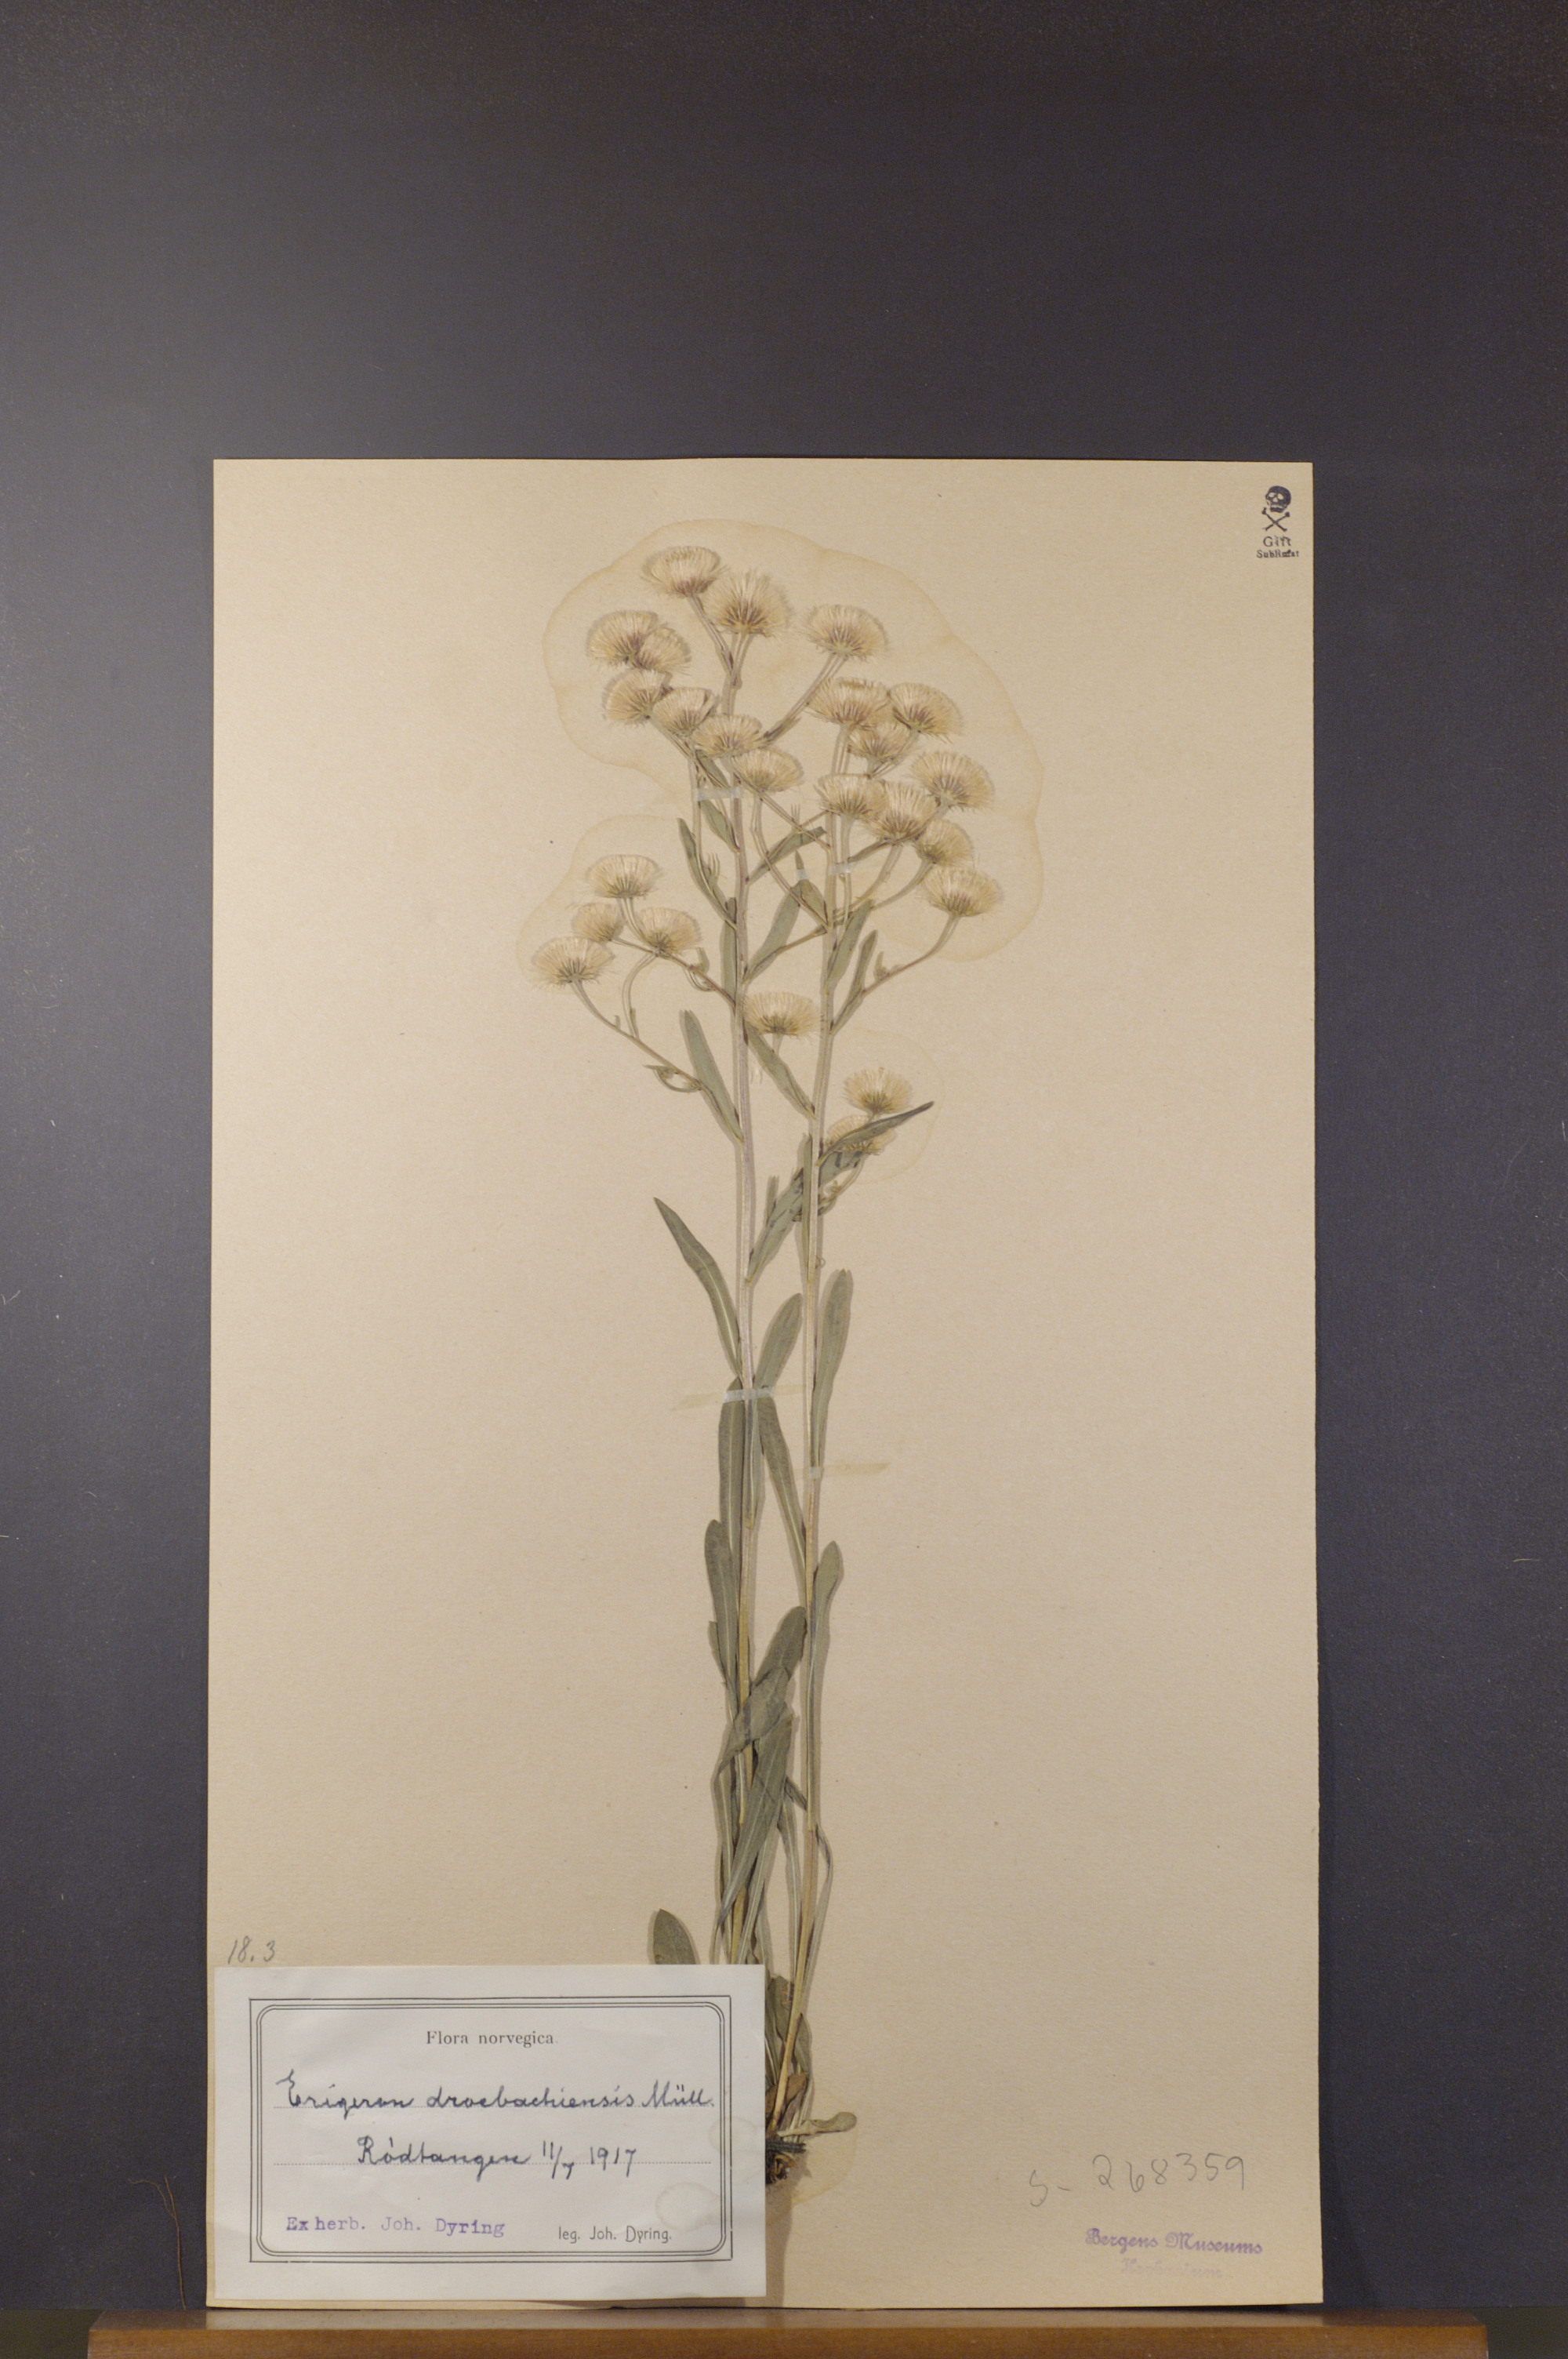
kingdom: Plantae
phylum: Tracheophyta
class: Magnoliopsida
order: Asterales
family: Asteraceae
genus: Erigeron
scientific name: Erigeron droebachiensis
